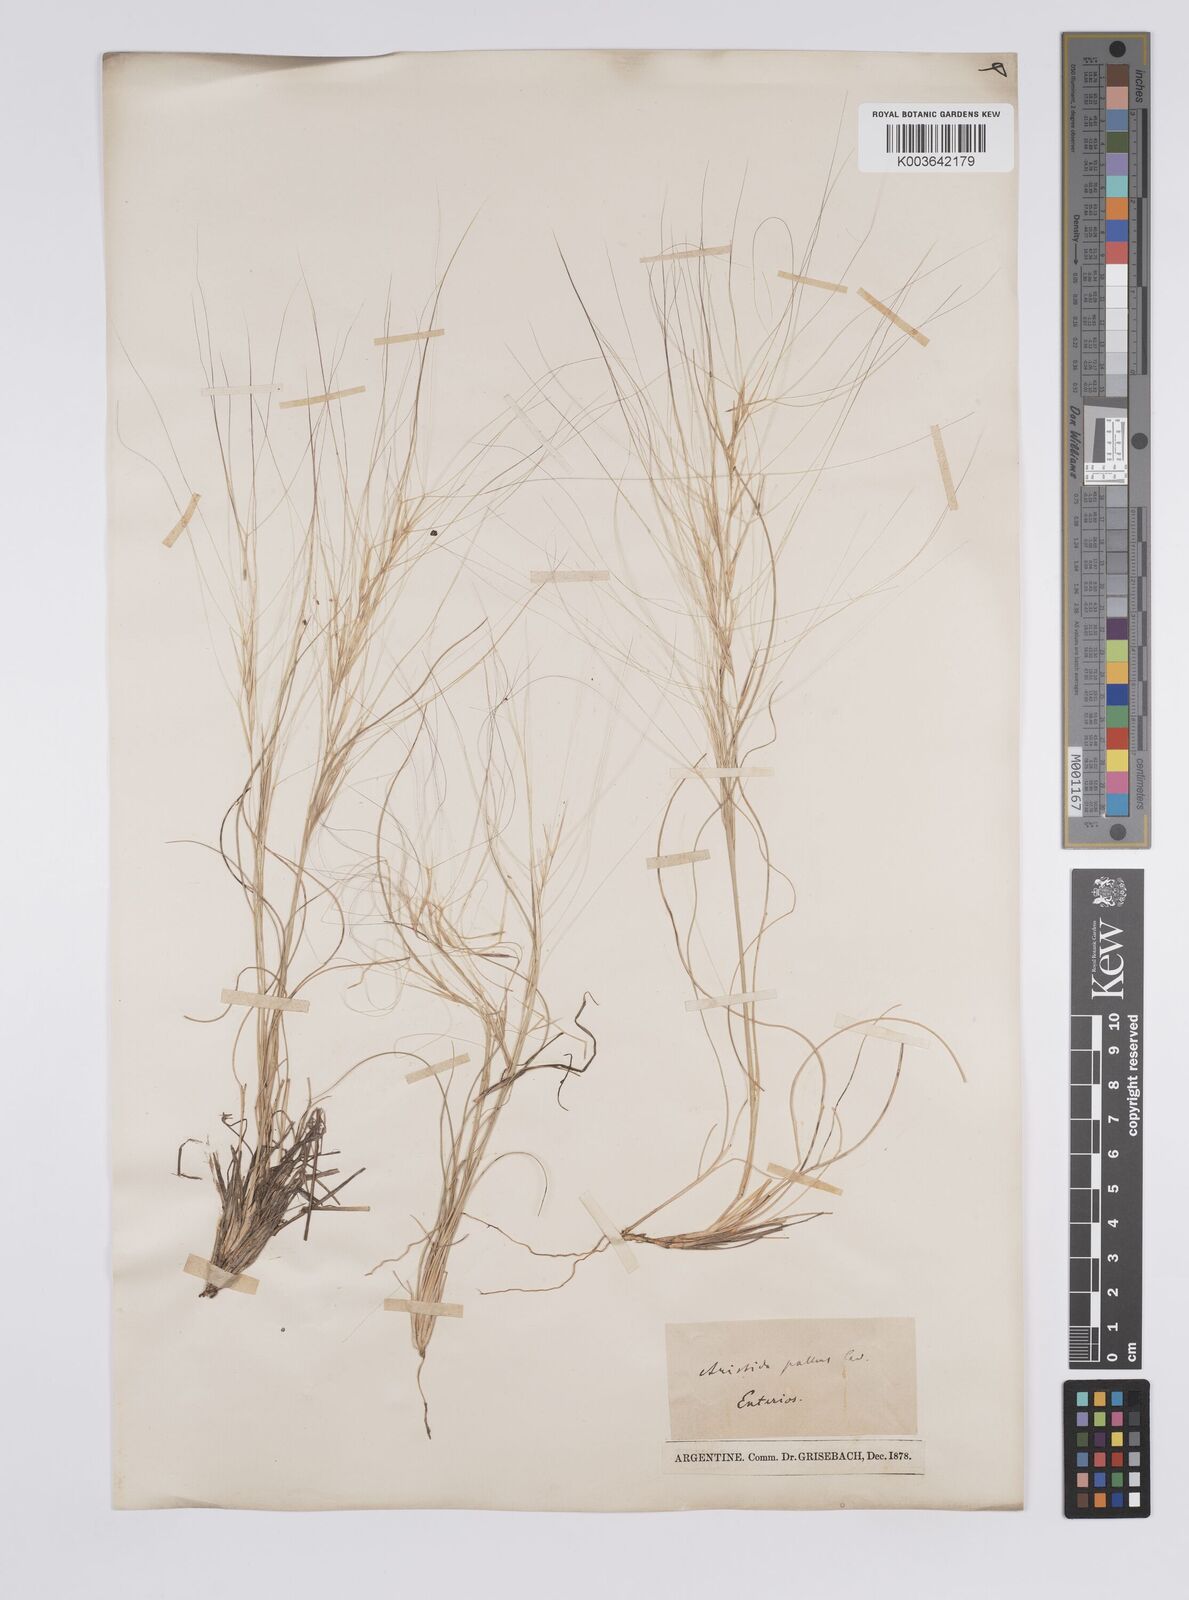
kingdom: Plantae
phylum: Tracheophyta
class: Liliopsida
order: Poales
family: Poaceae
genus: Aristida
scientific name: Aristida
